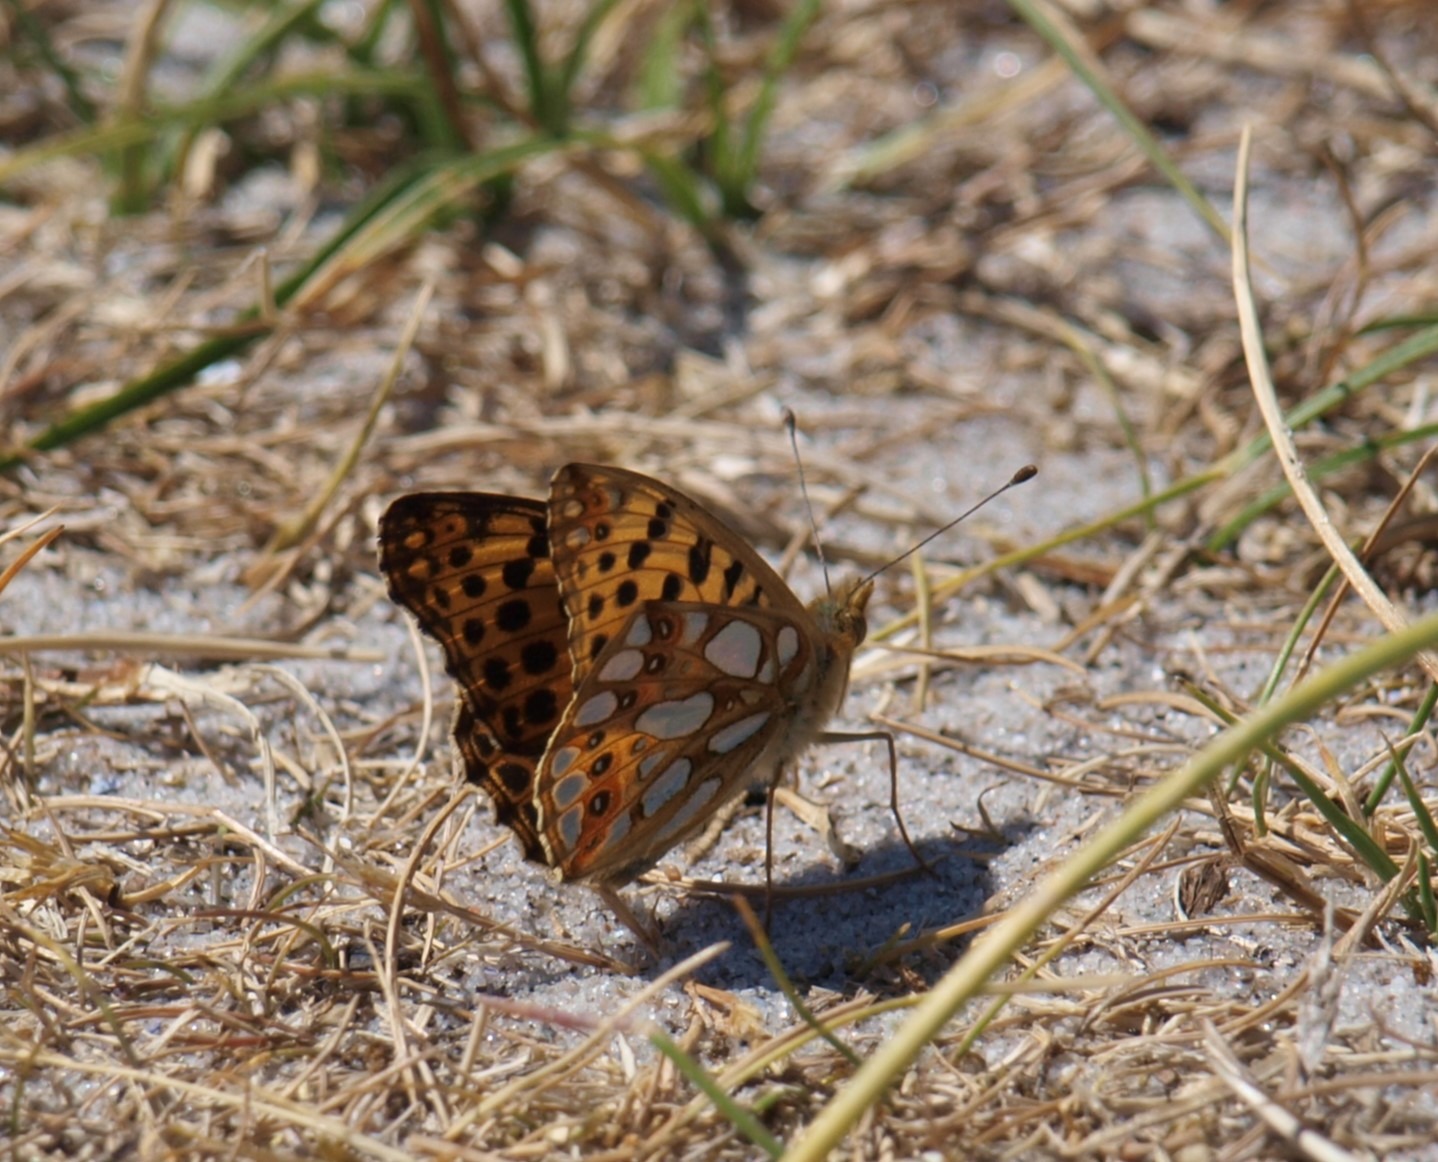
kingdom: Animalia
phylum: Arthropoda
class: Insecta
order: Lepidoptera
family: Nymphalidae
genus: Issoria
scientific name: Issoria lathonia
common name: Storplettet perlemorsommerfugl
